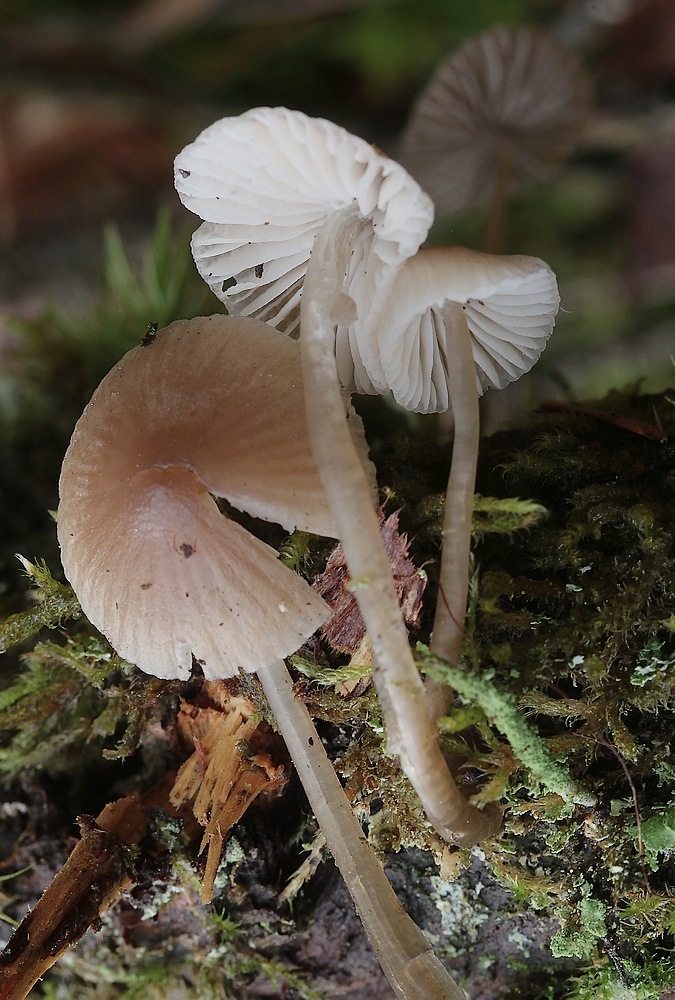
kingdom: Fungi
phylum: Basidiomycota
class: Agaricomycetes
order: Agaricales
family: Mycenaceae
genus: Mycena
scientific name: Mycena
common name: huesvamp
